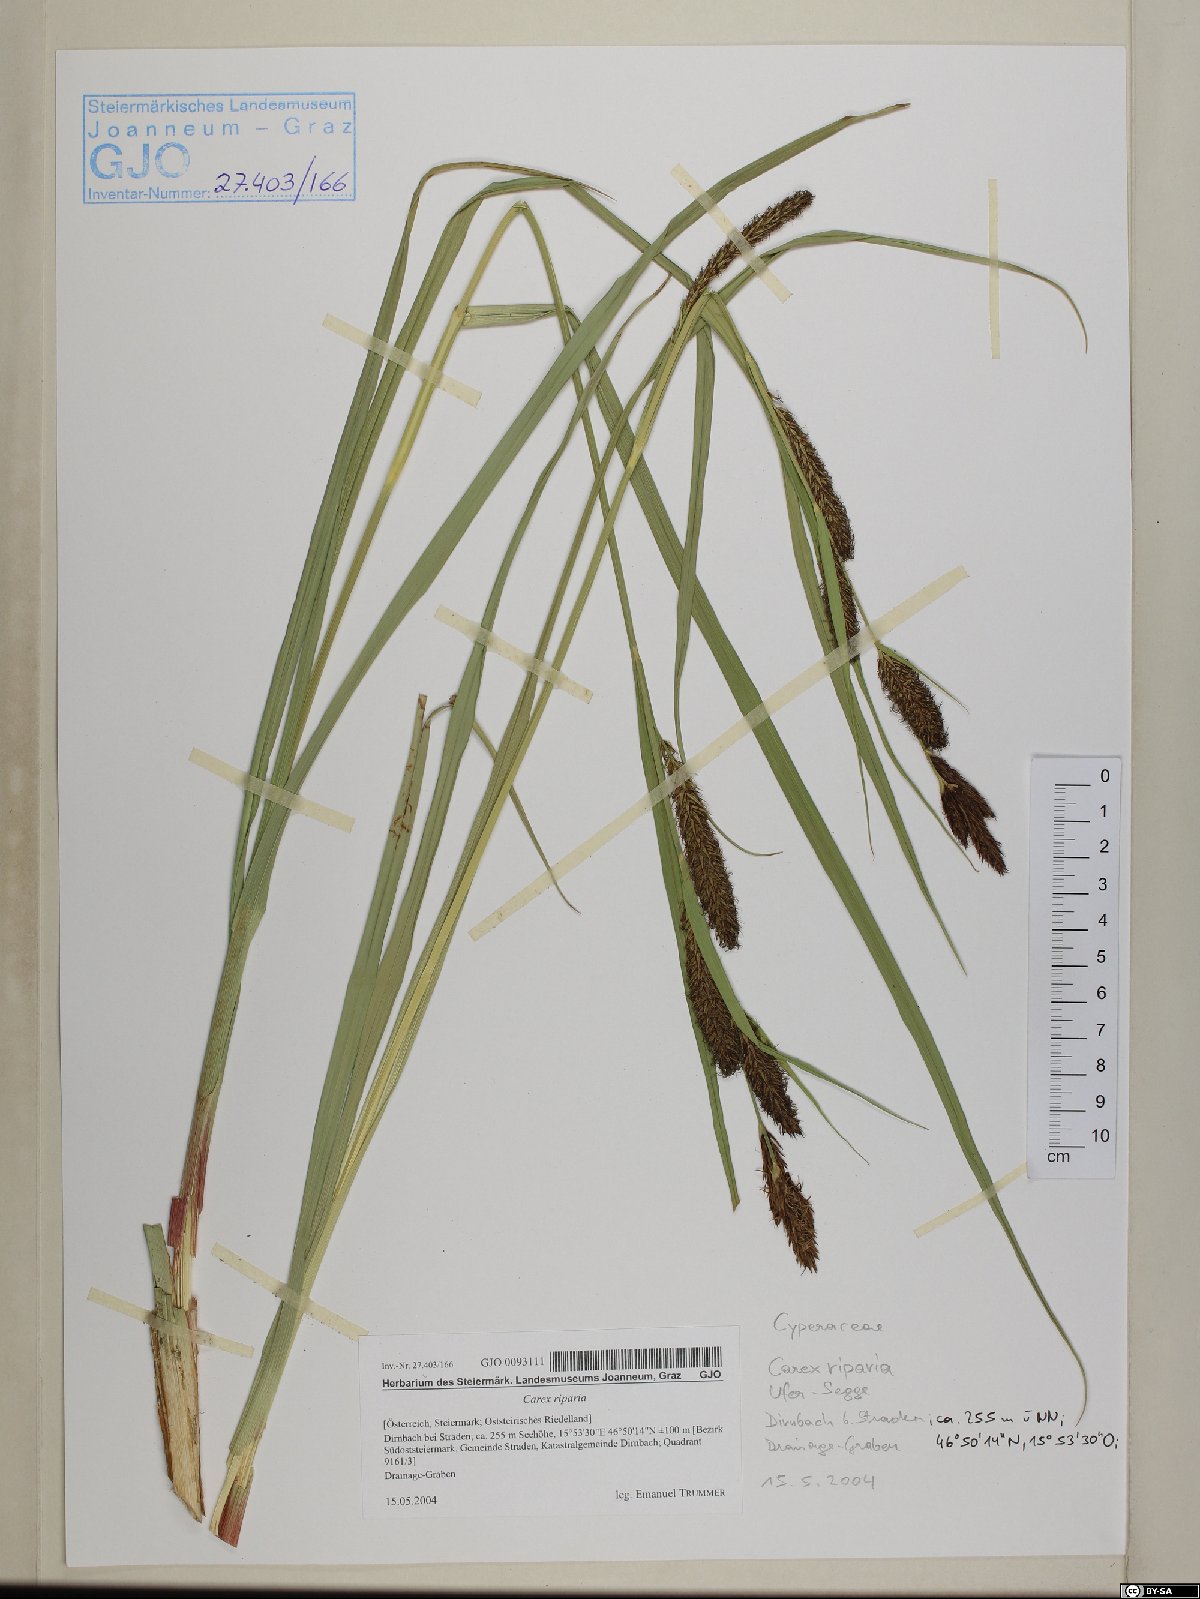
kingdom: Plantae
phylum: Tracheophyta
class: Liliopsida
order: Poales
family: Cyperaceae
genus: Carex
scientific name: Carex riparia
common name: Greater pond-sedge
